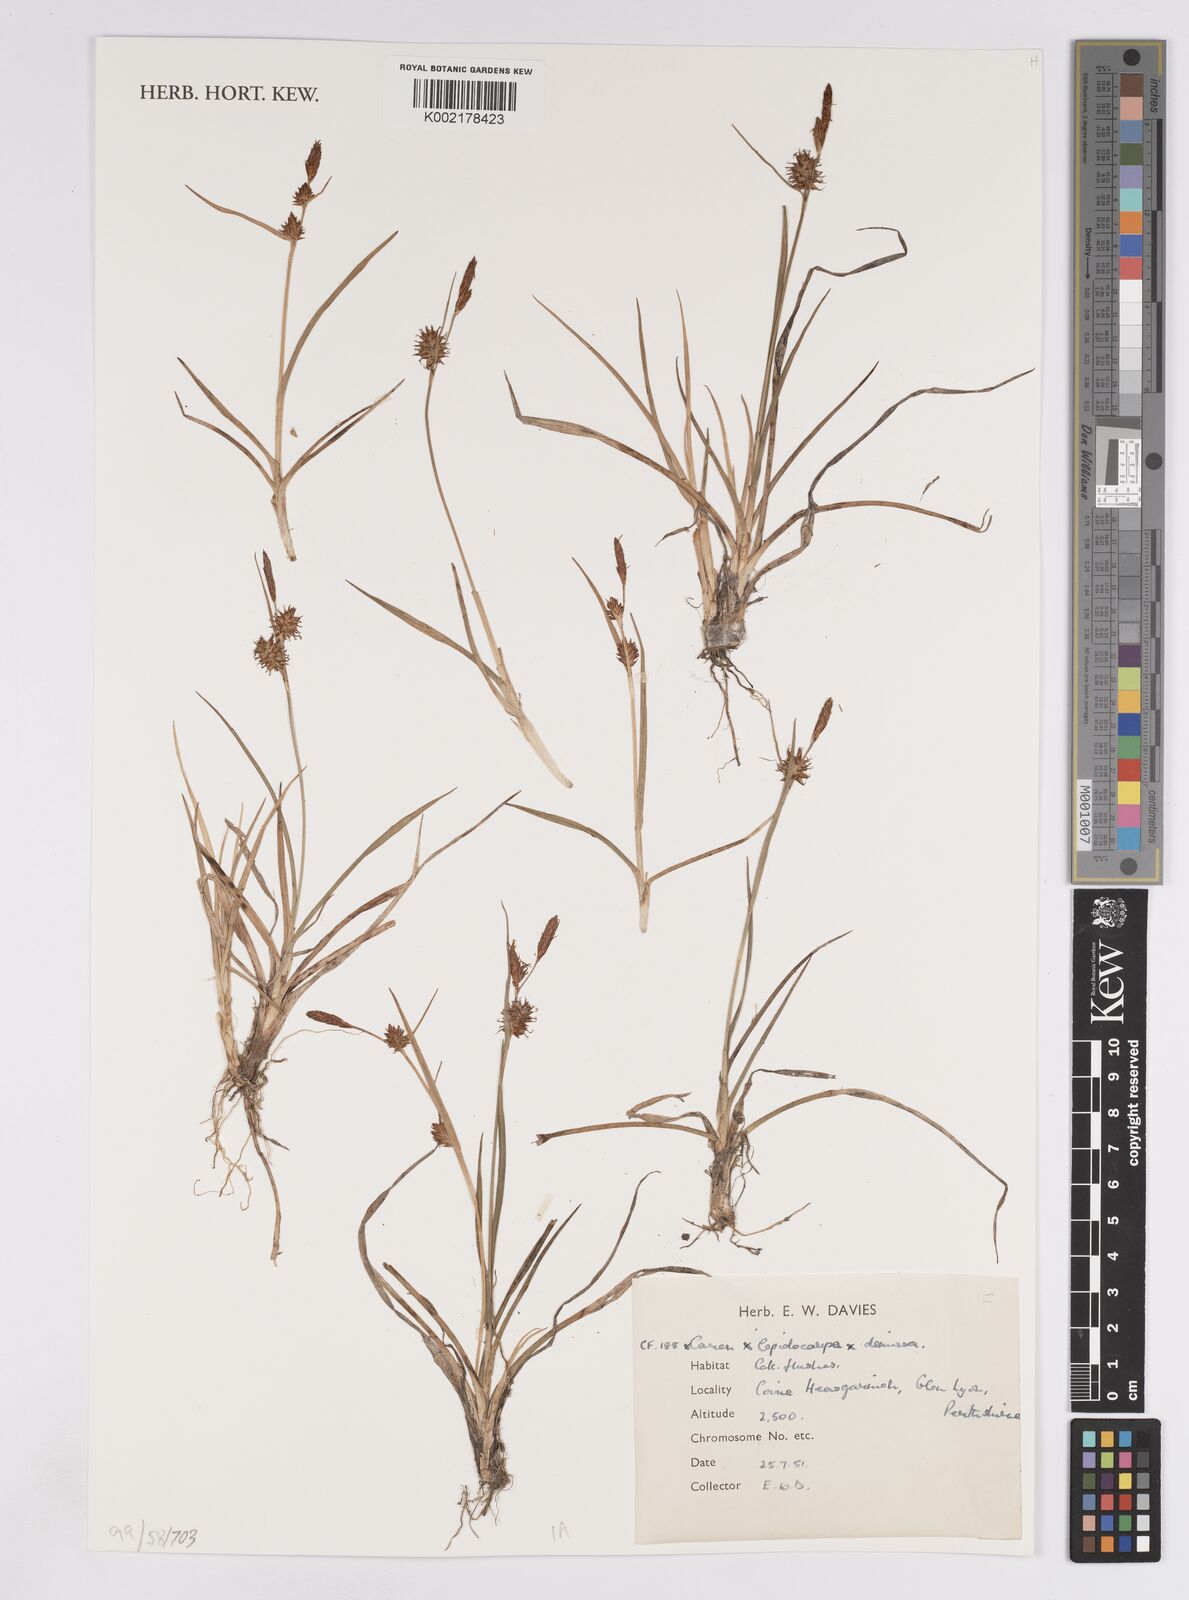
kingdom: Plantae
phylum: Tracheophyta
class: Liliopsida
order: Poales
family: Cyperaceae
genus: Carex
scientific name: Carex lepidocarpa
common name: Long-stalked yellow-sedge
